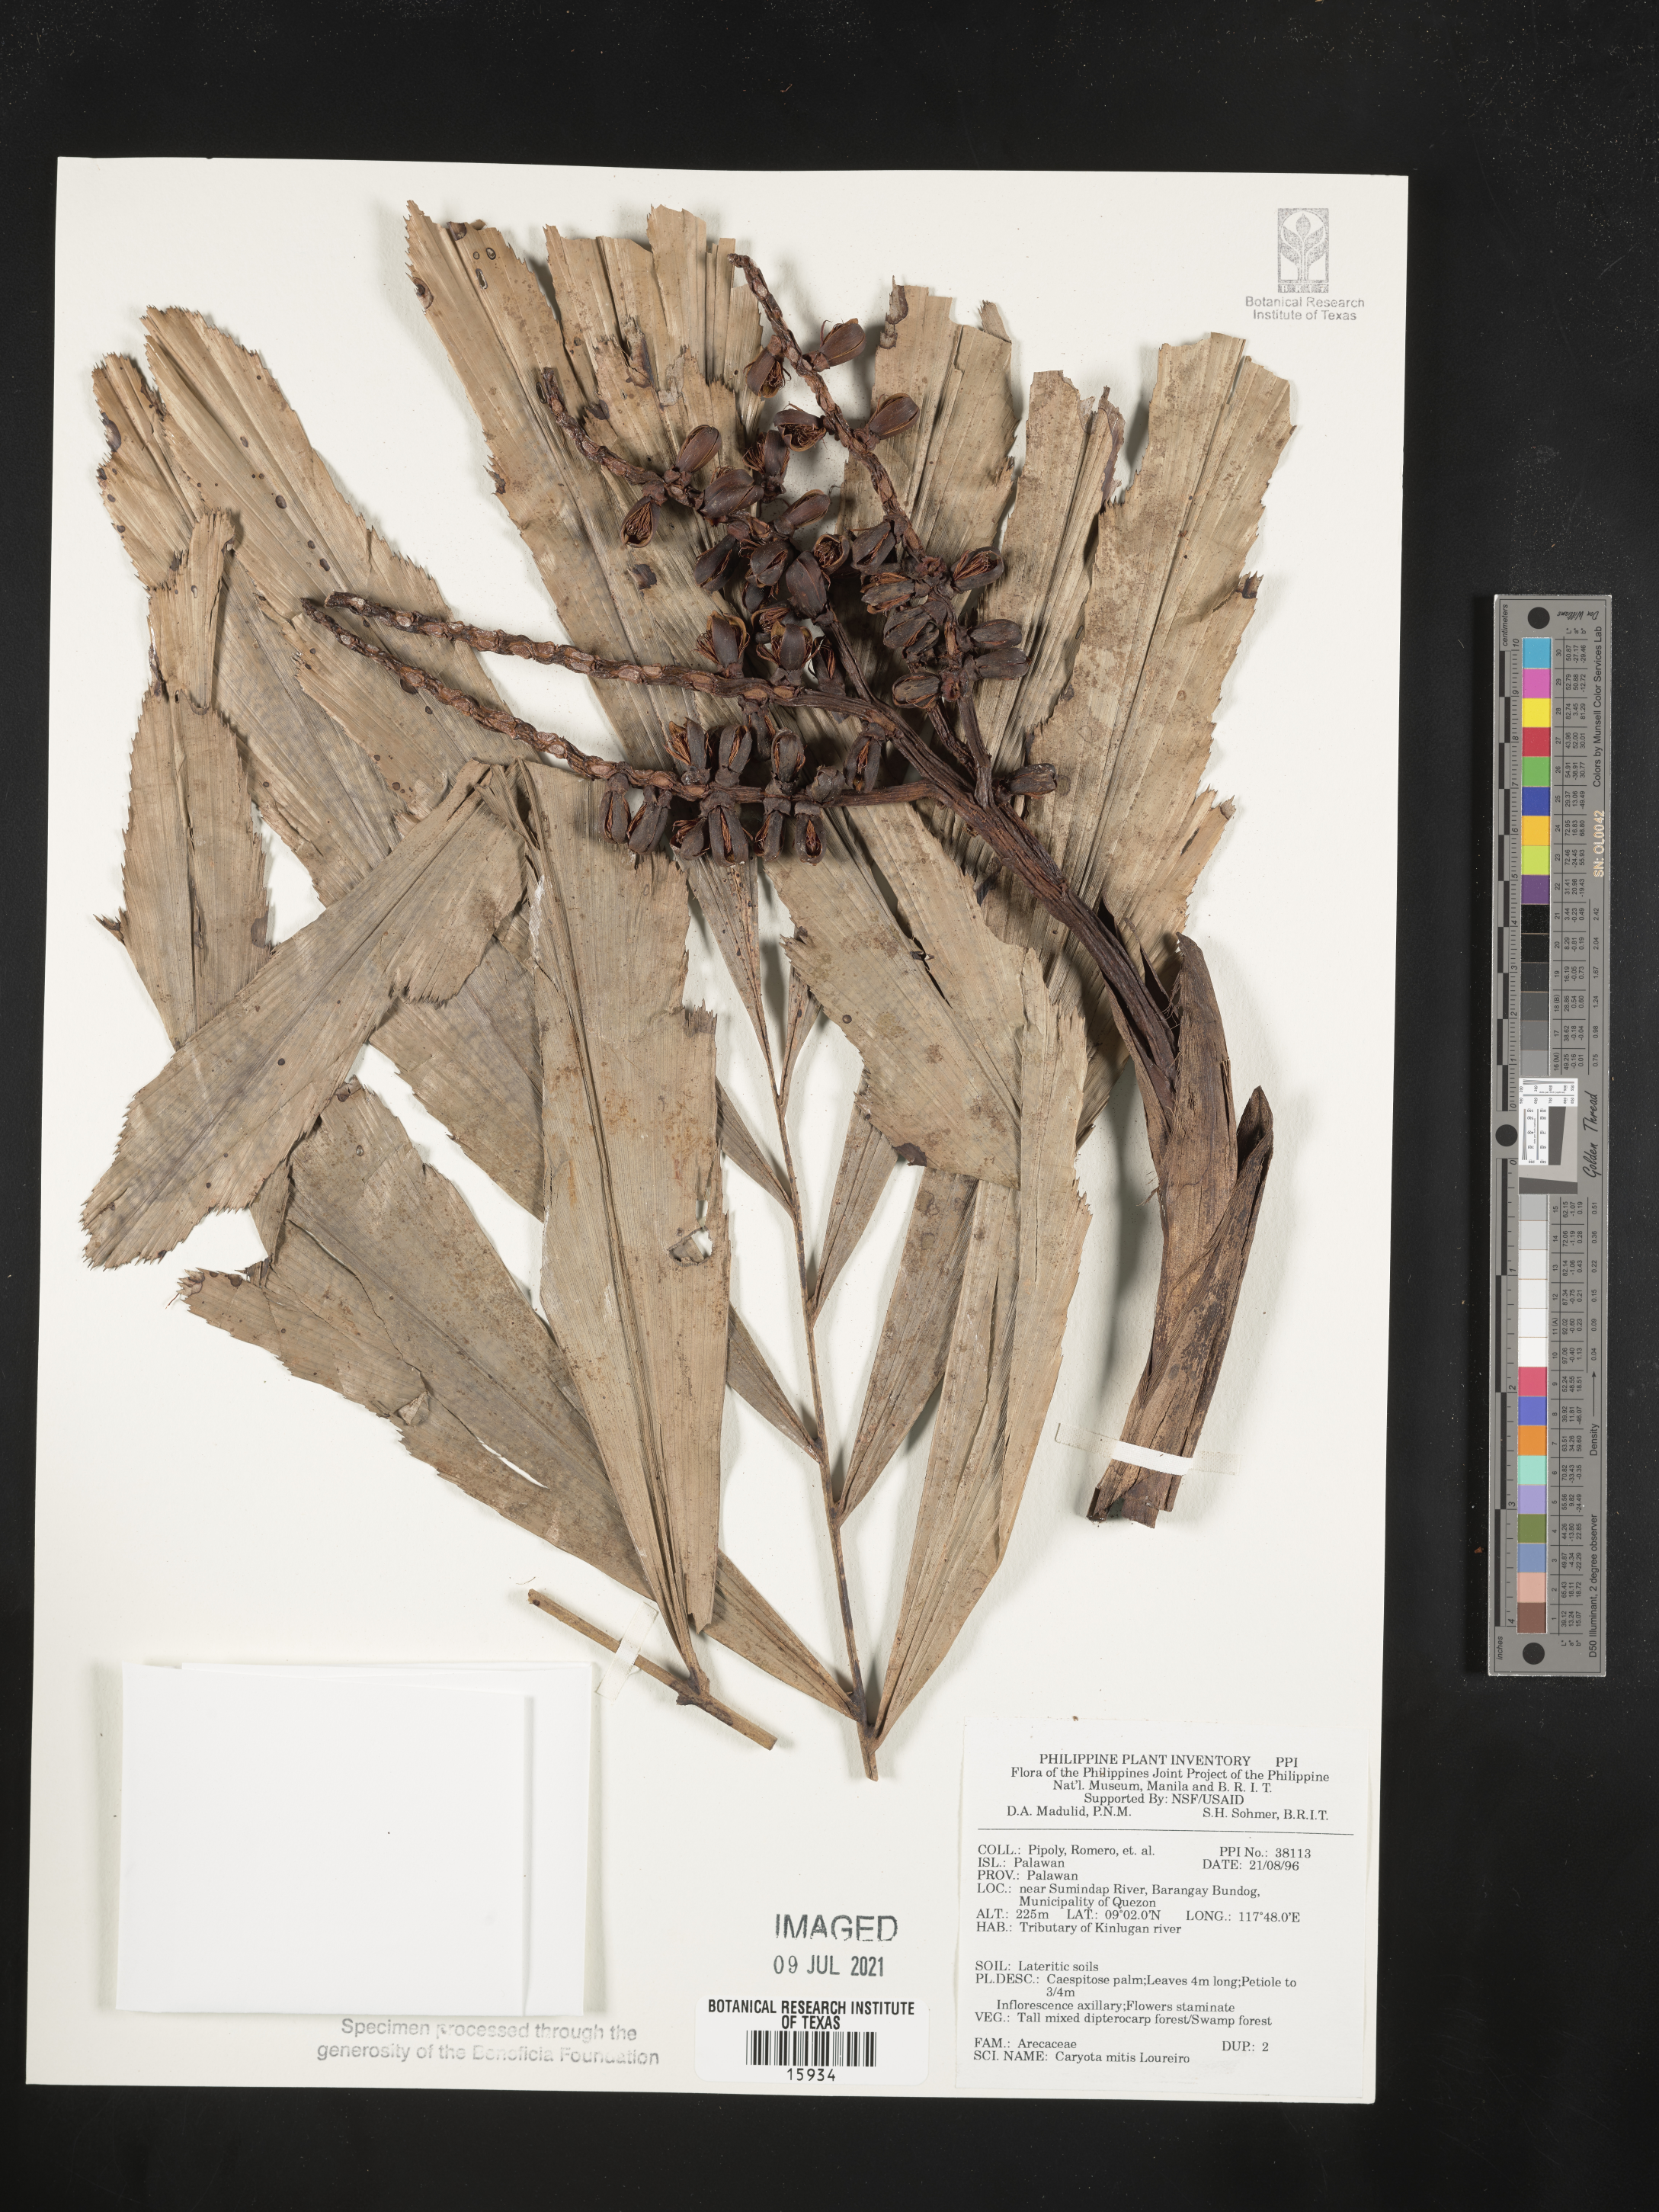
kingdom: Plantae
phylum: Tracheophyta
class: Liliopsida
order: Arecales
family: Arecaceae
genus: Caryota
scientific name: Caryota mitis
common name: Burmese fishtail palm
